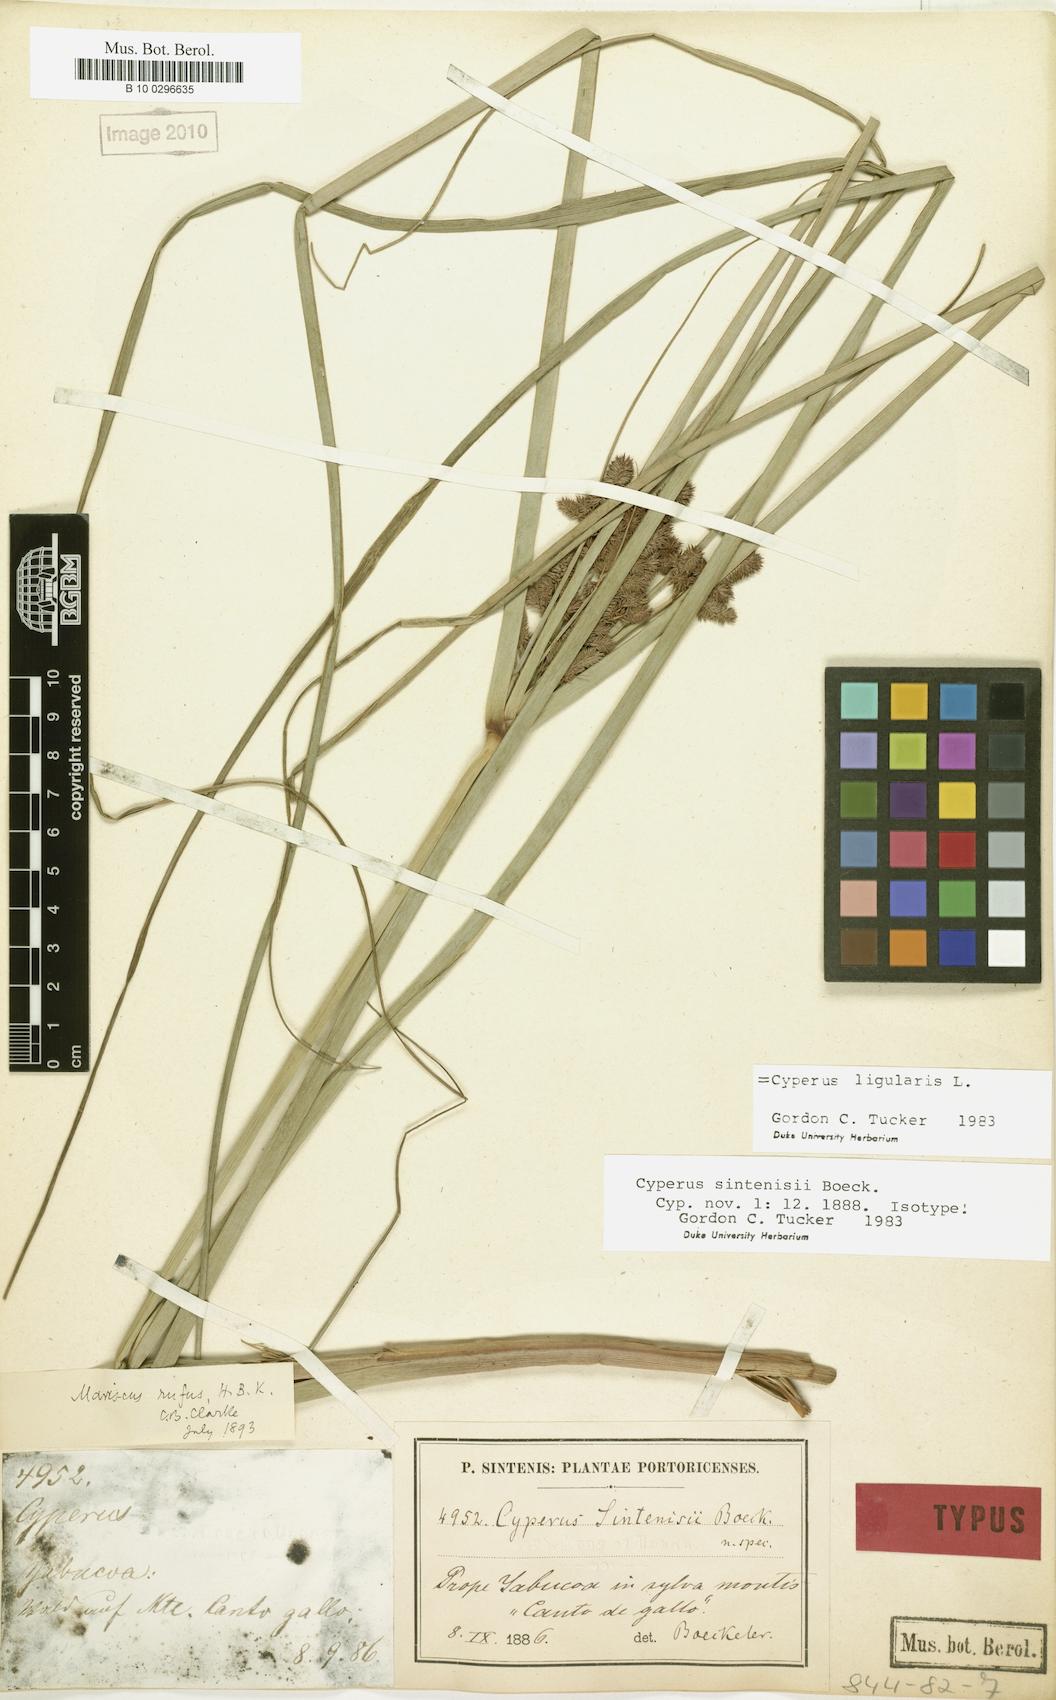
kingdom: Plantae
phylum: Tracheophyta
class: Liliopsida
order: Poales
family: Cyperaceae
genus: Cyperus
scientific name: Cyperus ligularis
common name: Swamp flat sedge
